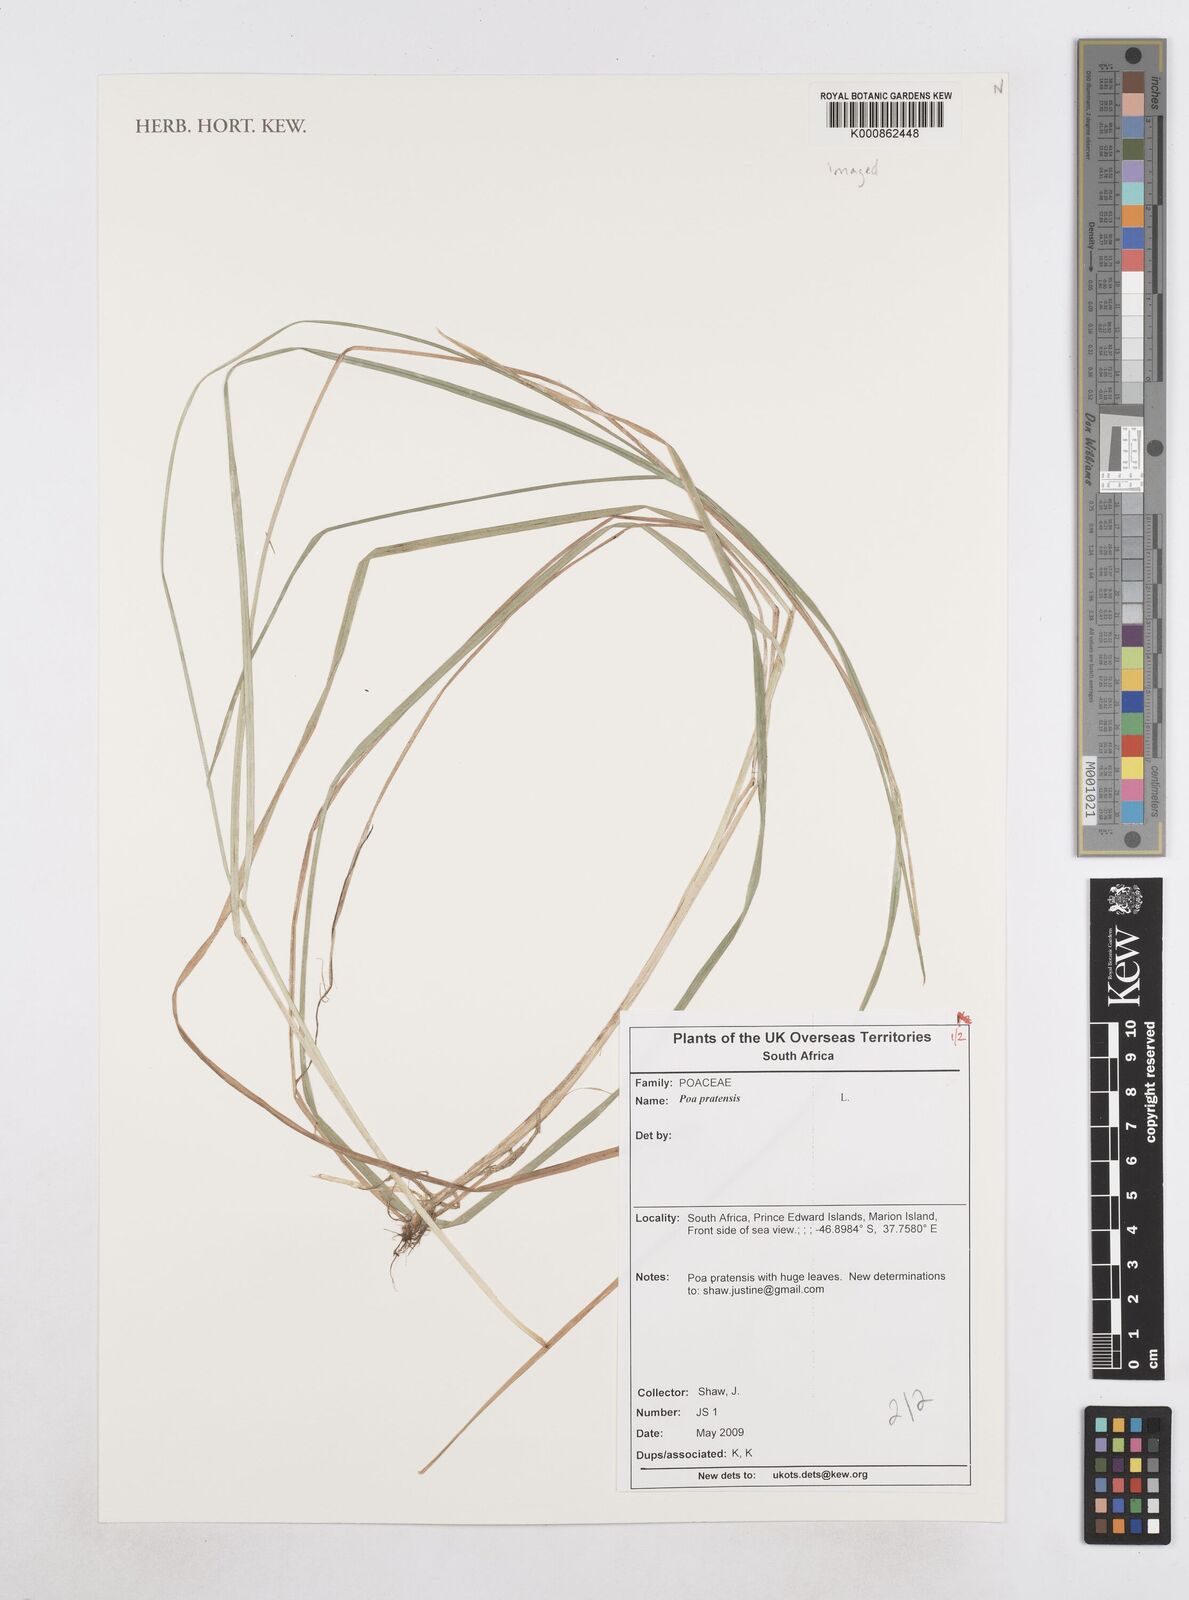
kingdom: Plantae
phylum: Tracheophyta
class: Liliopsida
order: Poales
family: Poaceae
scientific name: Poaceae
